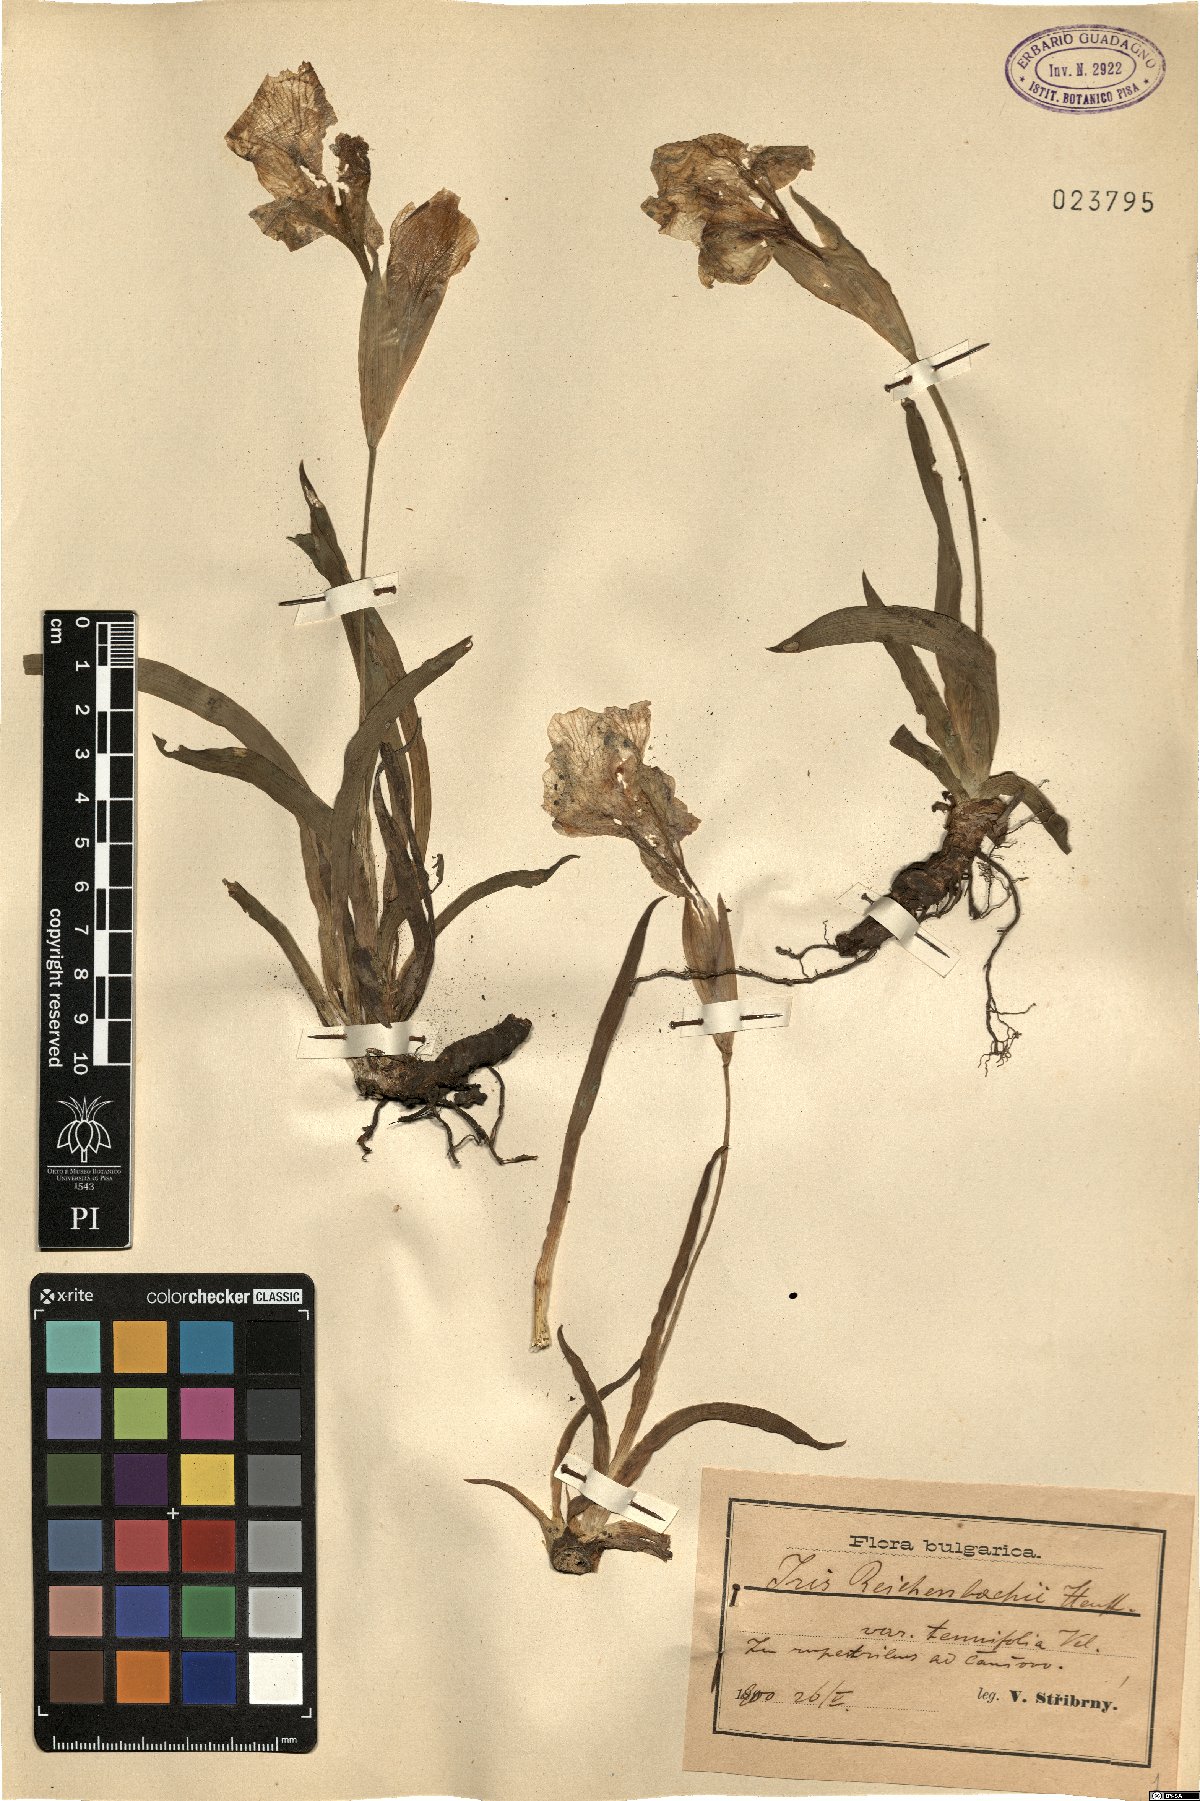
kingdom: Plantae
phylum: Tracheophyta
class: Liliopsida
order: Asparagales
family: Iridaceae
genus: Iris
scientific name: Iris reichenbachii
